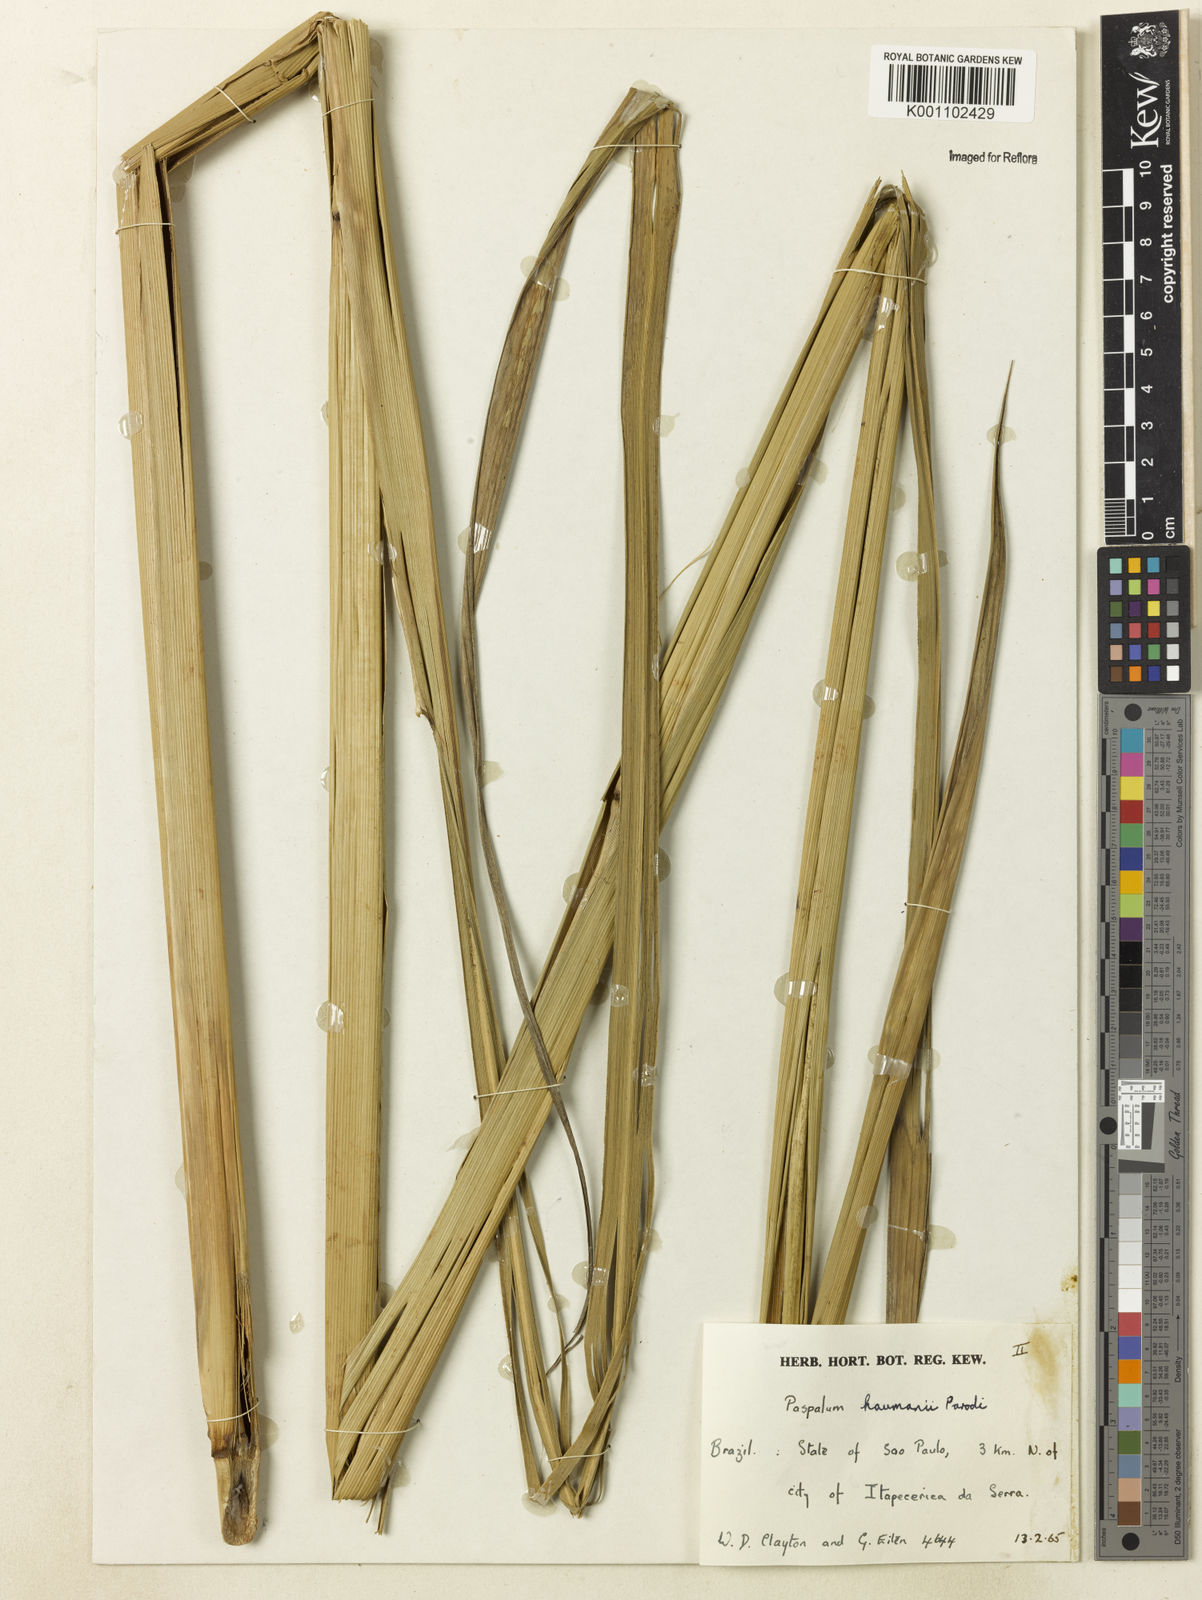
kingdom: Plantae
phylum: Tracheophyta
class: Liliopsida
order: Poales
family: Poaceae
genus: Paspalum
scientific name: Paspalum exaltatum
